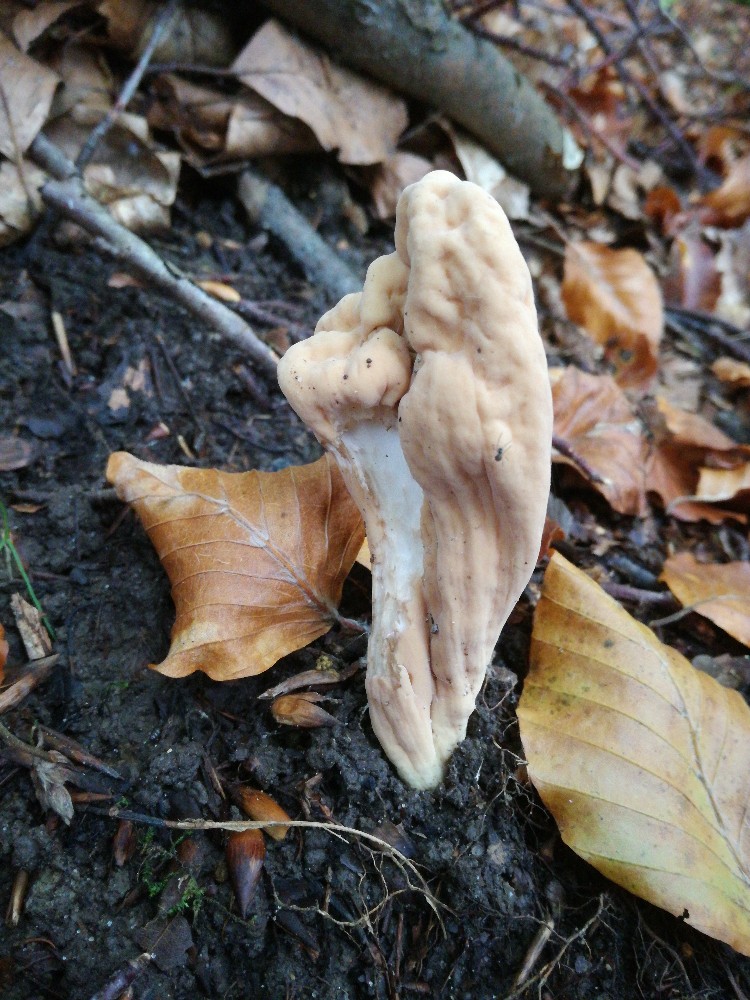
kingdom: Fungi
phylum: Basidiomycota
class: Agaricomycetes
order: Gomphales
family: Clavariadelphaceae
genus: Clavariadelphus
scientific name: Clavariadelphus pistillaris
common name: herkules-kæmpekølle
